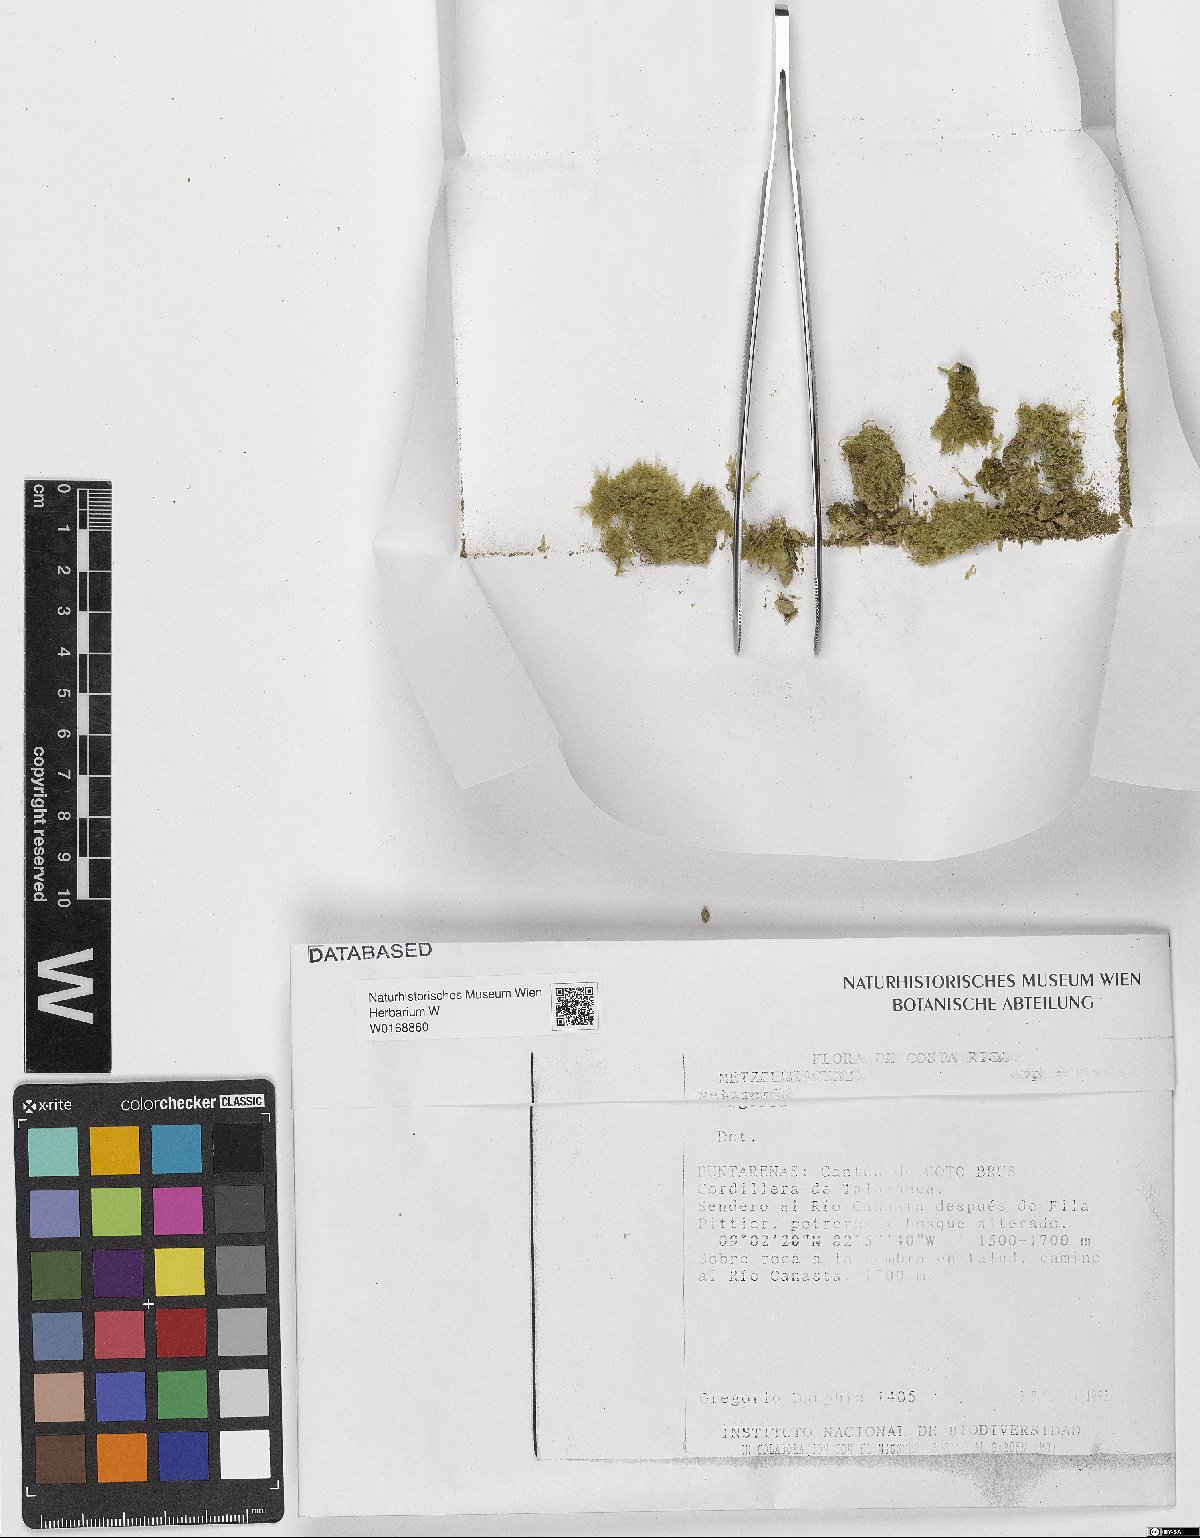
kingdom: Plantae
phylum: Marchantiophyta
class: Jungermanniopsida
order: Metzgeriales
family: Metzgeriaceae
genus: Metzgeria
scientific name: Metzgeria
